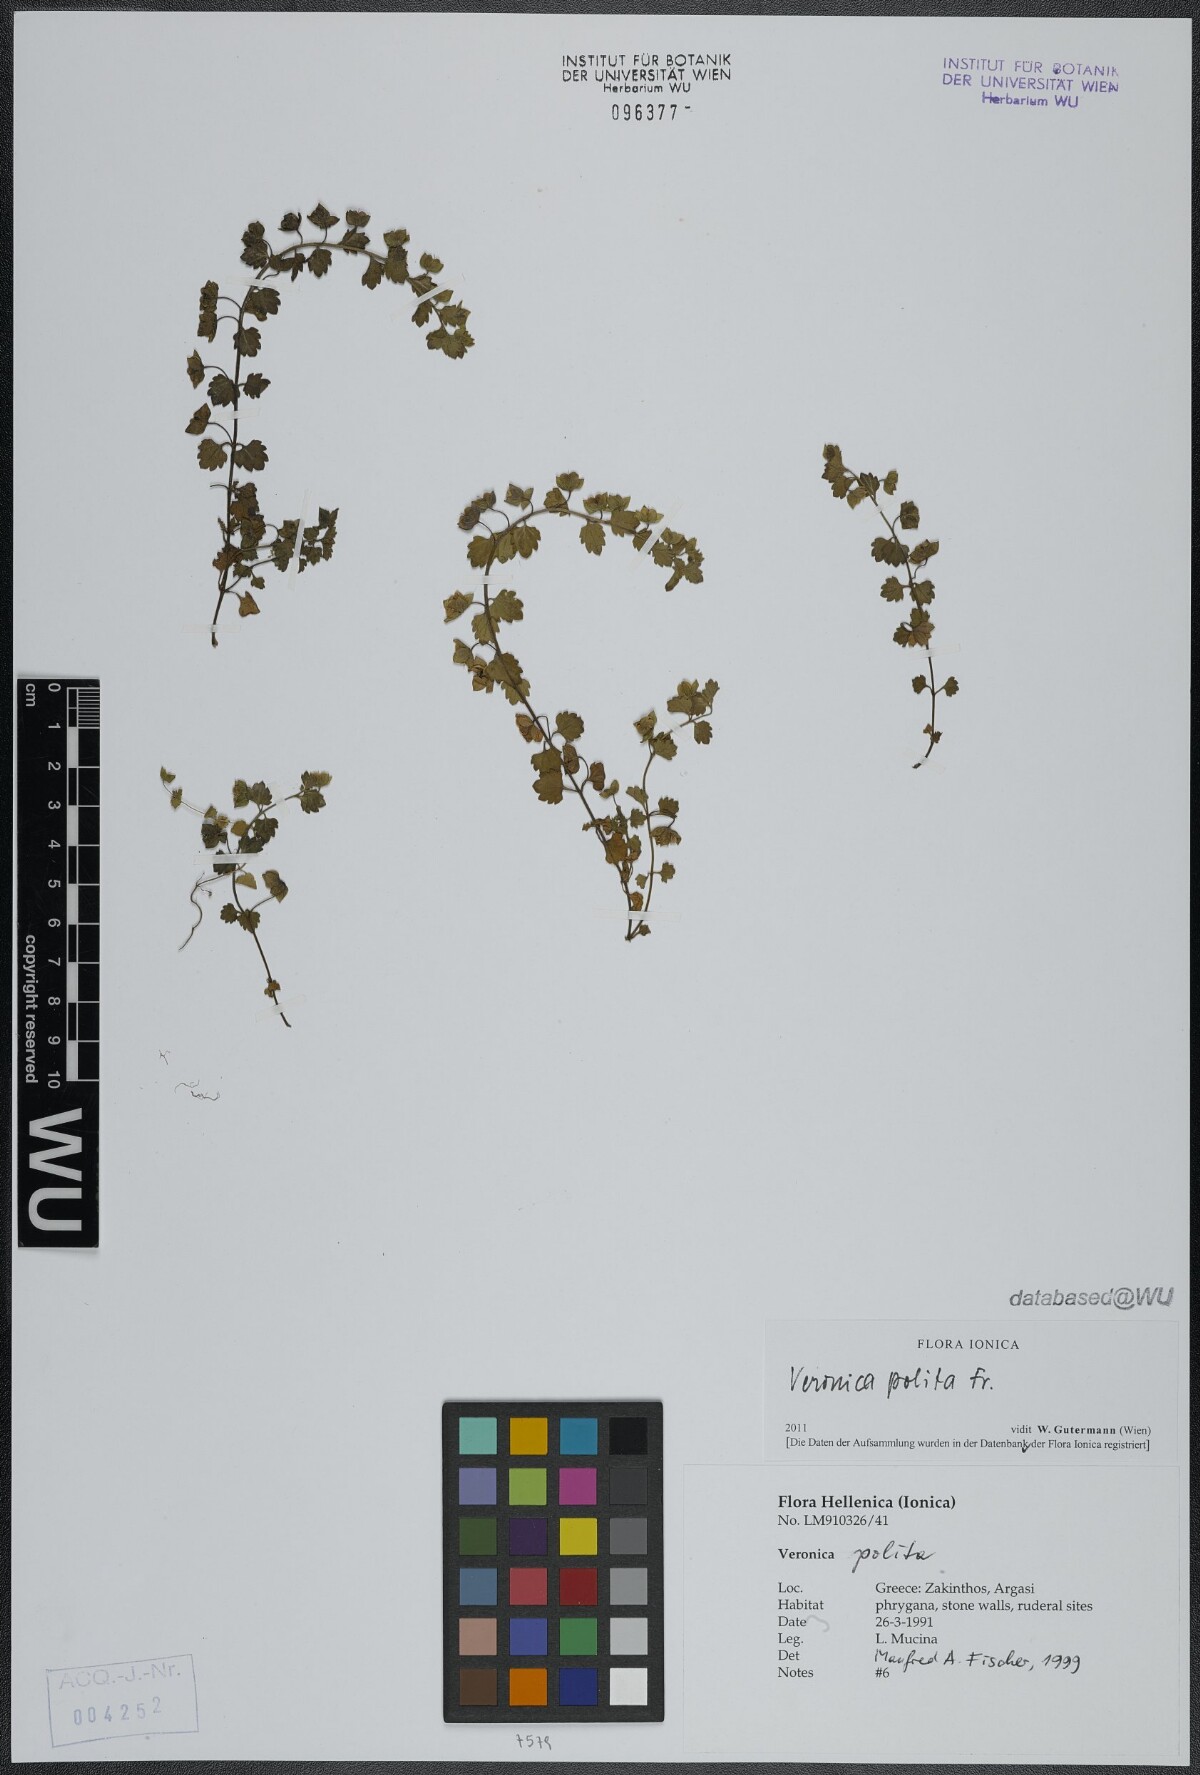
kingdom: Plantae
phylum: Tracheophyta
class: Magnoliopsida
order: Lamiales
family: Plantaginaceae
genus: Veronica
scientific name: Veronica polita
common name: Grey field-speedwell
